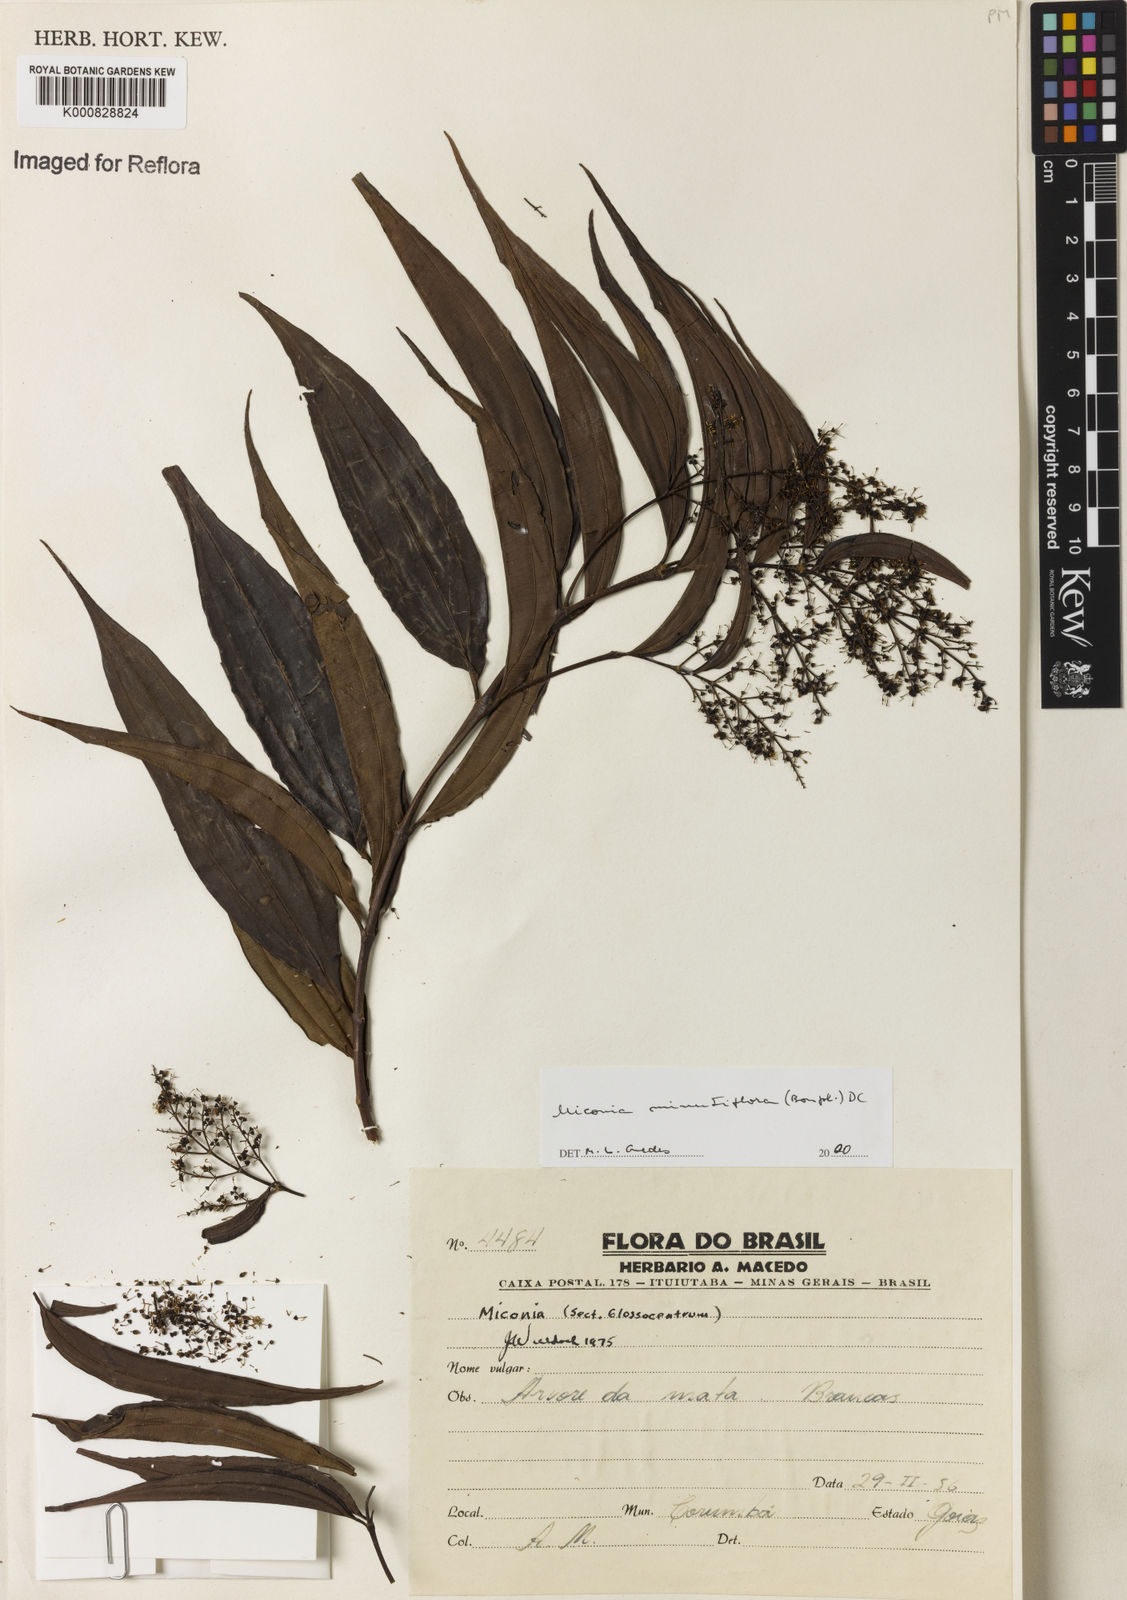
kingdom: Plantae
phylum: Tracheophyta
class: Magnoliopsida
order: Myrtales
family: Melastomataceae
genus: Miconia
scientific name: Miconia minutiflora
